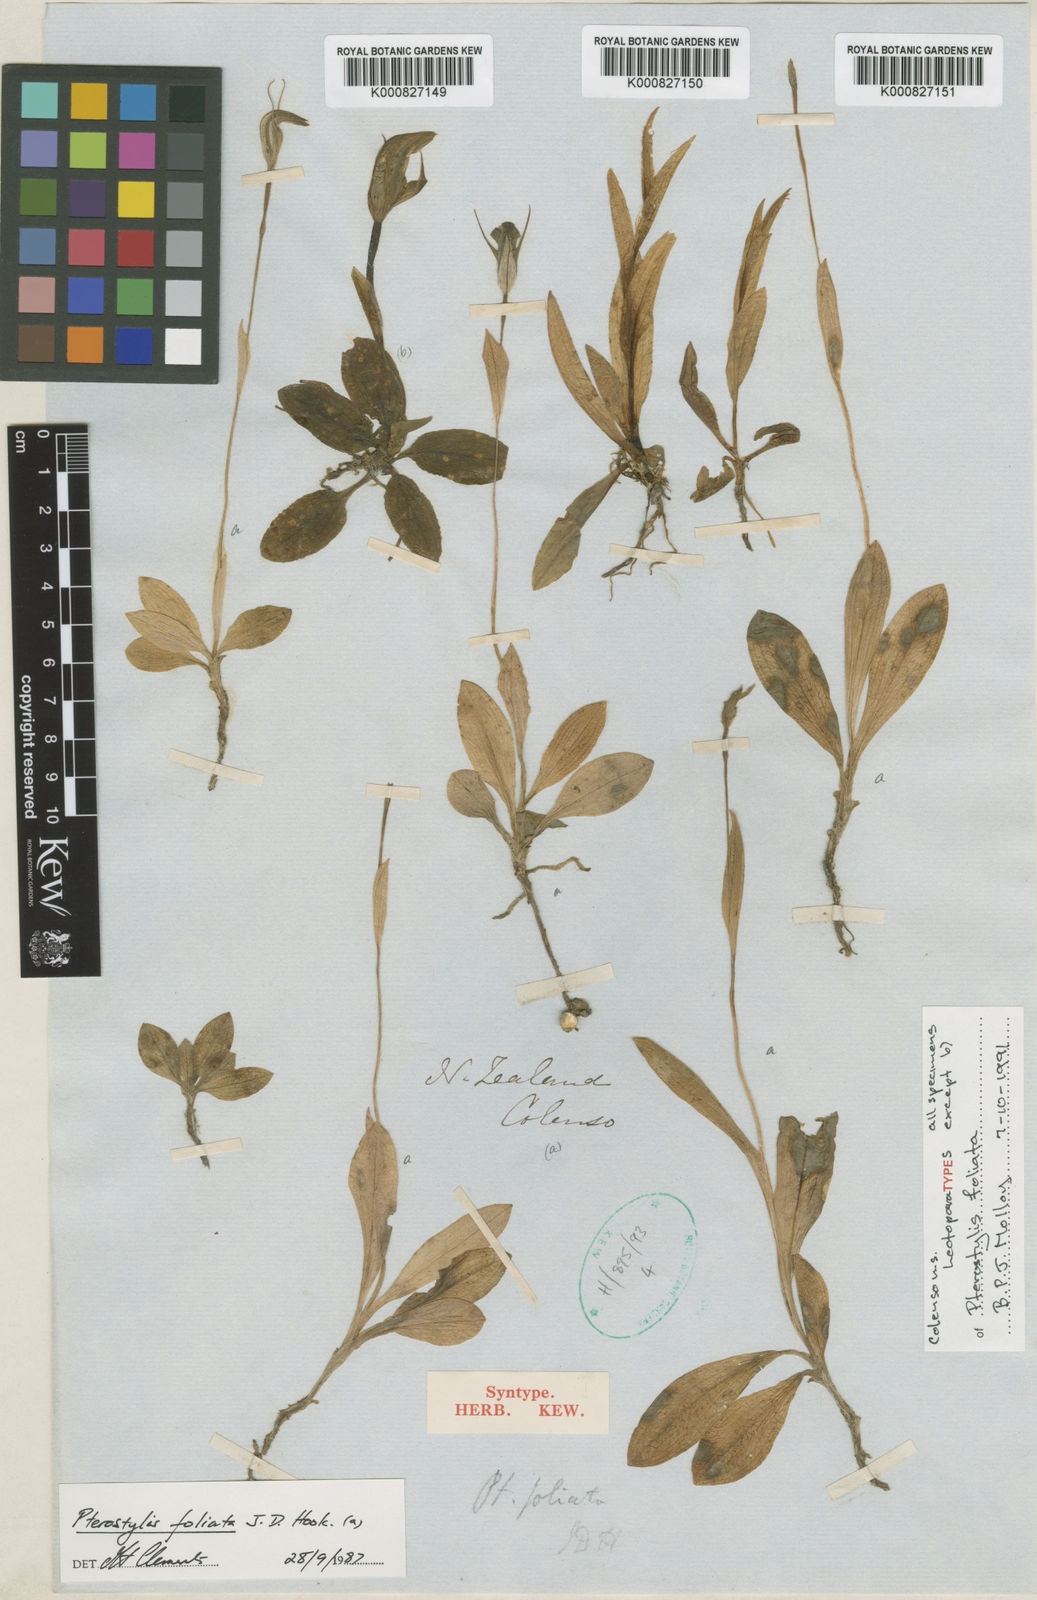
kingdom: Plantae
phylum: Tracheophyta
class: Liliopsida
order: Asparagales
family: Orchidaceae
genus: Pterostylis
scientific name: Pterostylis venosa
